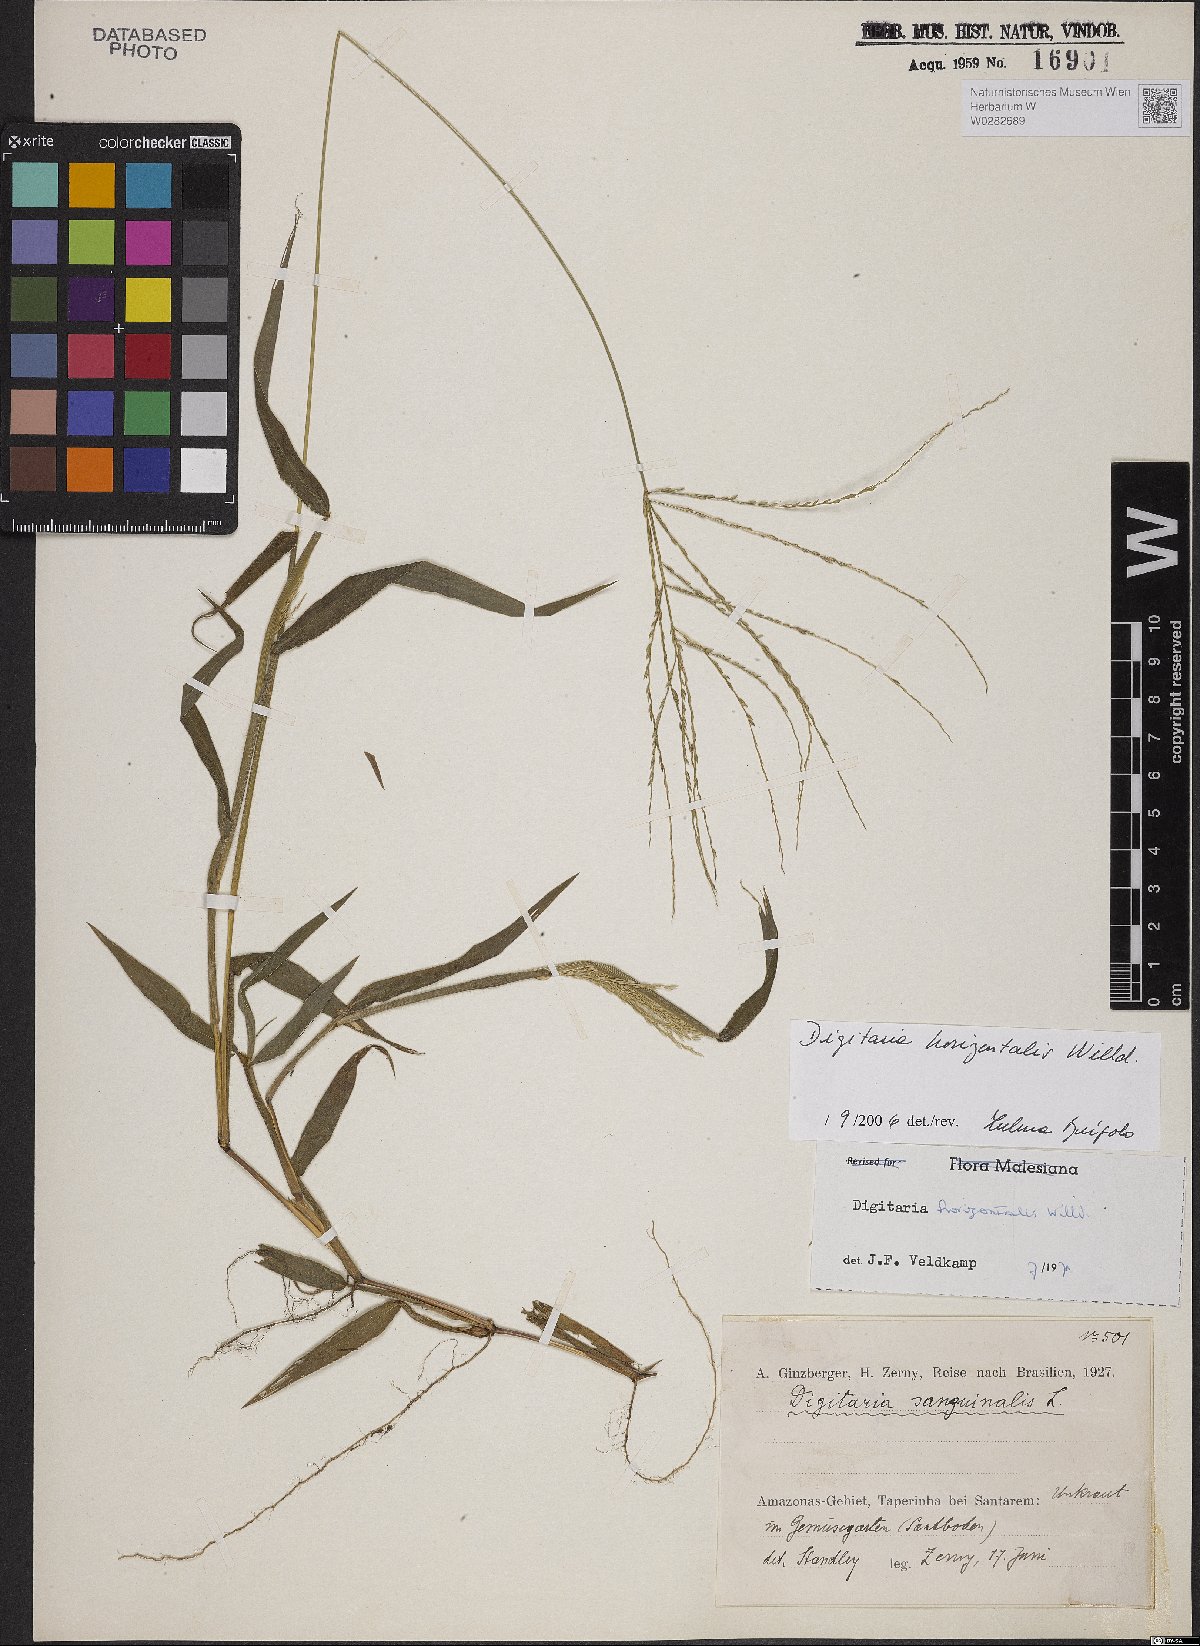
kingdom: Plantae
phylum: Tracheophyta
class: Liliopsida
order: Poales
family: Poaceae
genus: Digitaria
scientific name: Digitaria horizontalis
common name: Jamaican crabgrass
